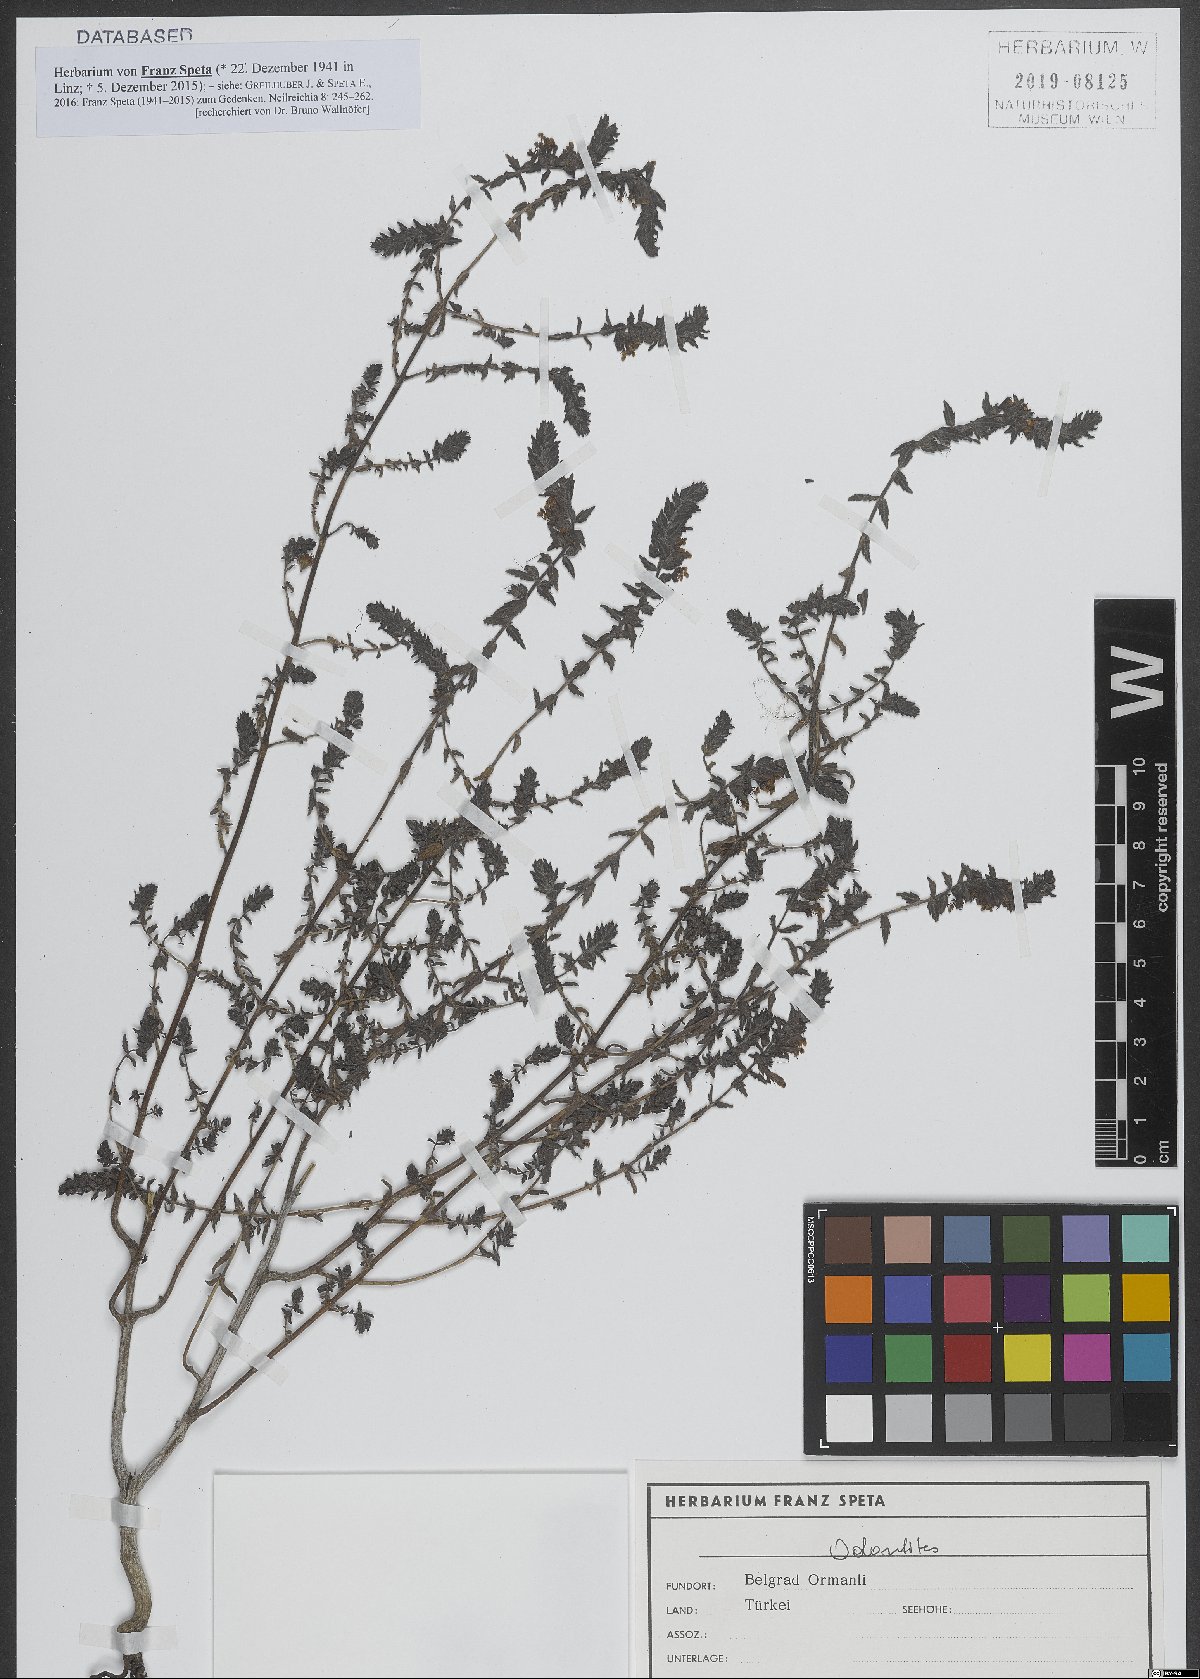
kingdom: Plantae
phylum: Tracheophyta
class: Magnoliopsida
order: Lamiales
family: Orobanchaceae
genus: Odontites
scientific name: Odontites
